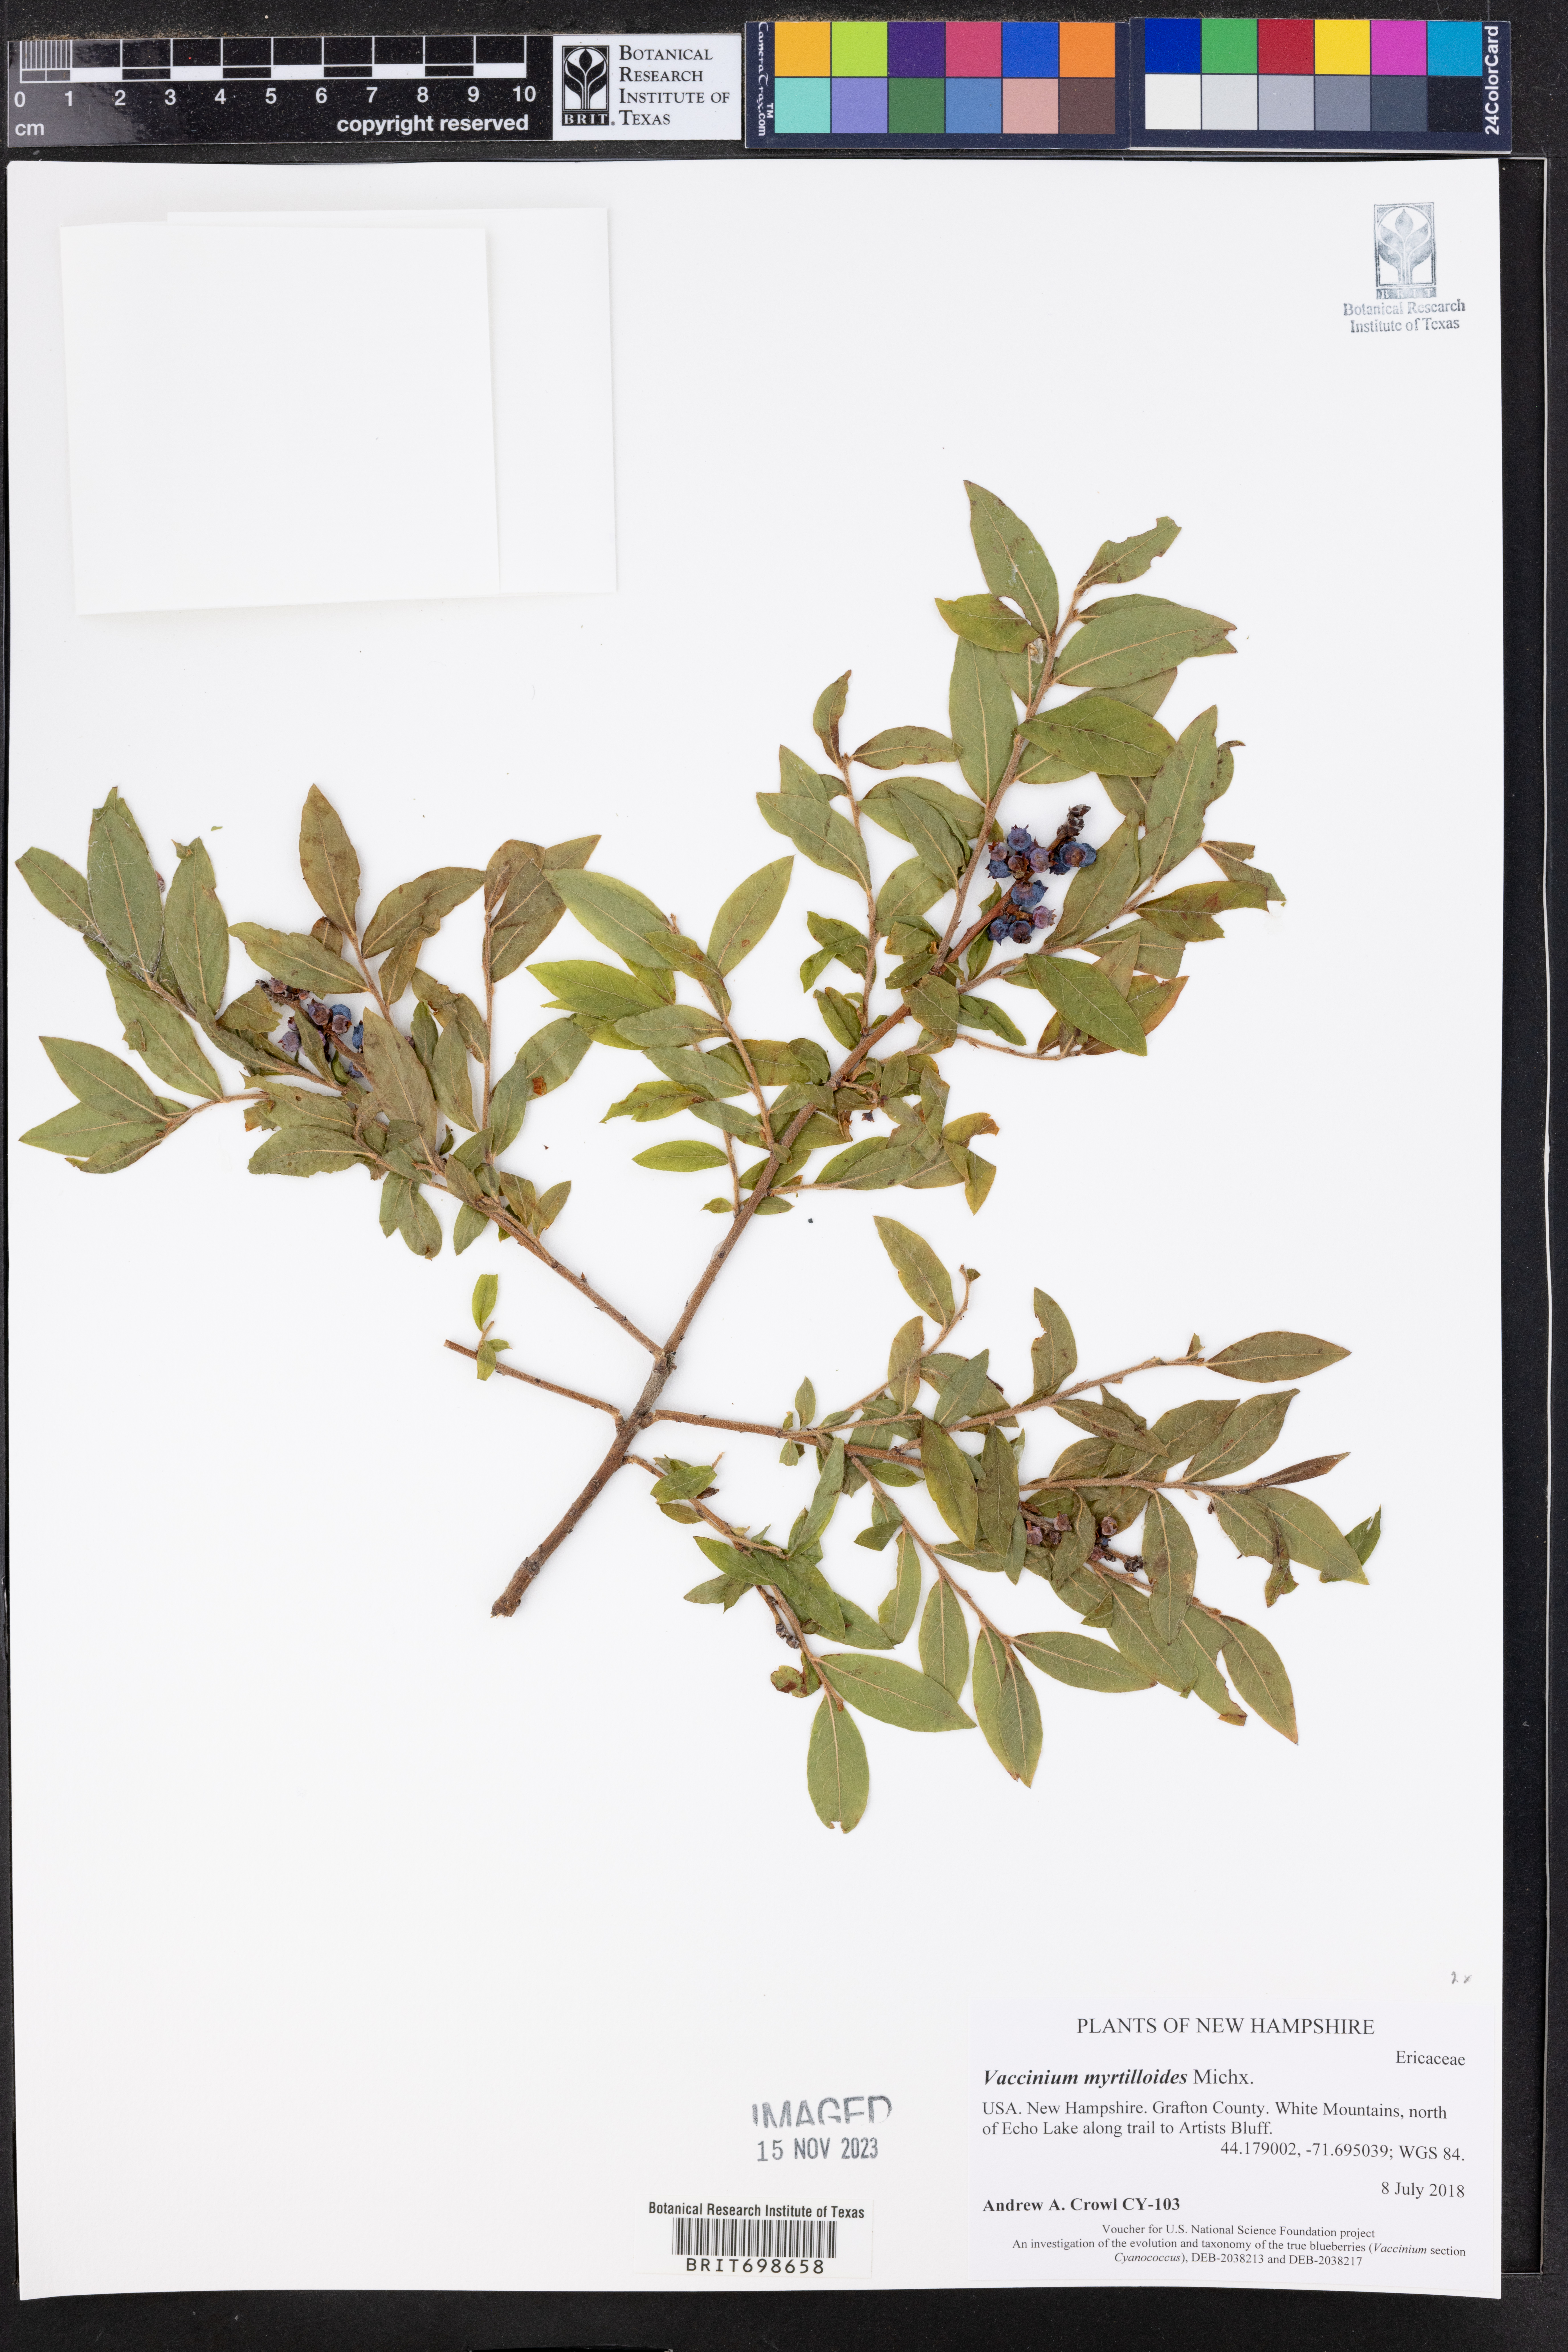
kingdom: Plantae
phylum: Tracheophyta
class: Magnoliopsida
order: Ericales
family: Ericaceae
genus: Vaccinium
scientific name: Vaccinium myrtilloides
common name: Canada blueberry
